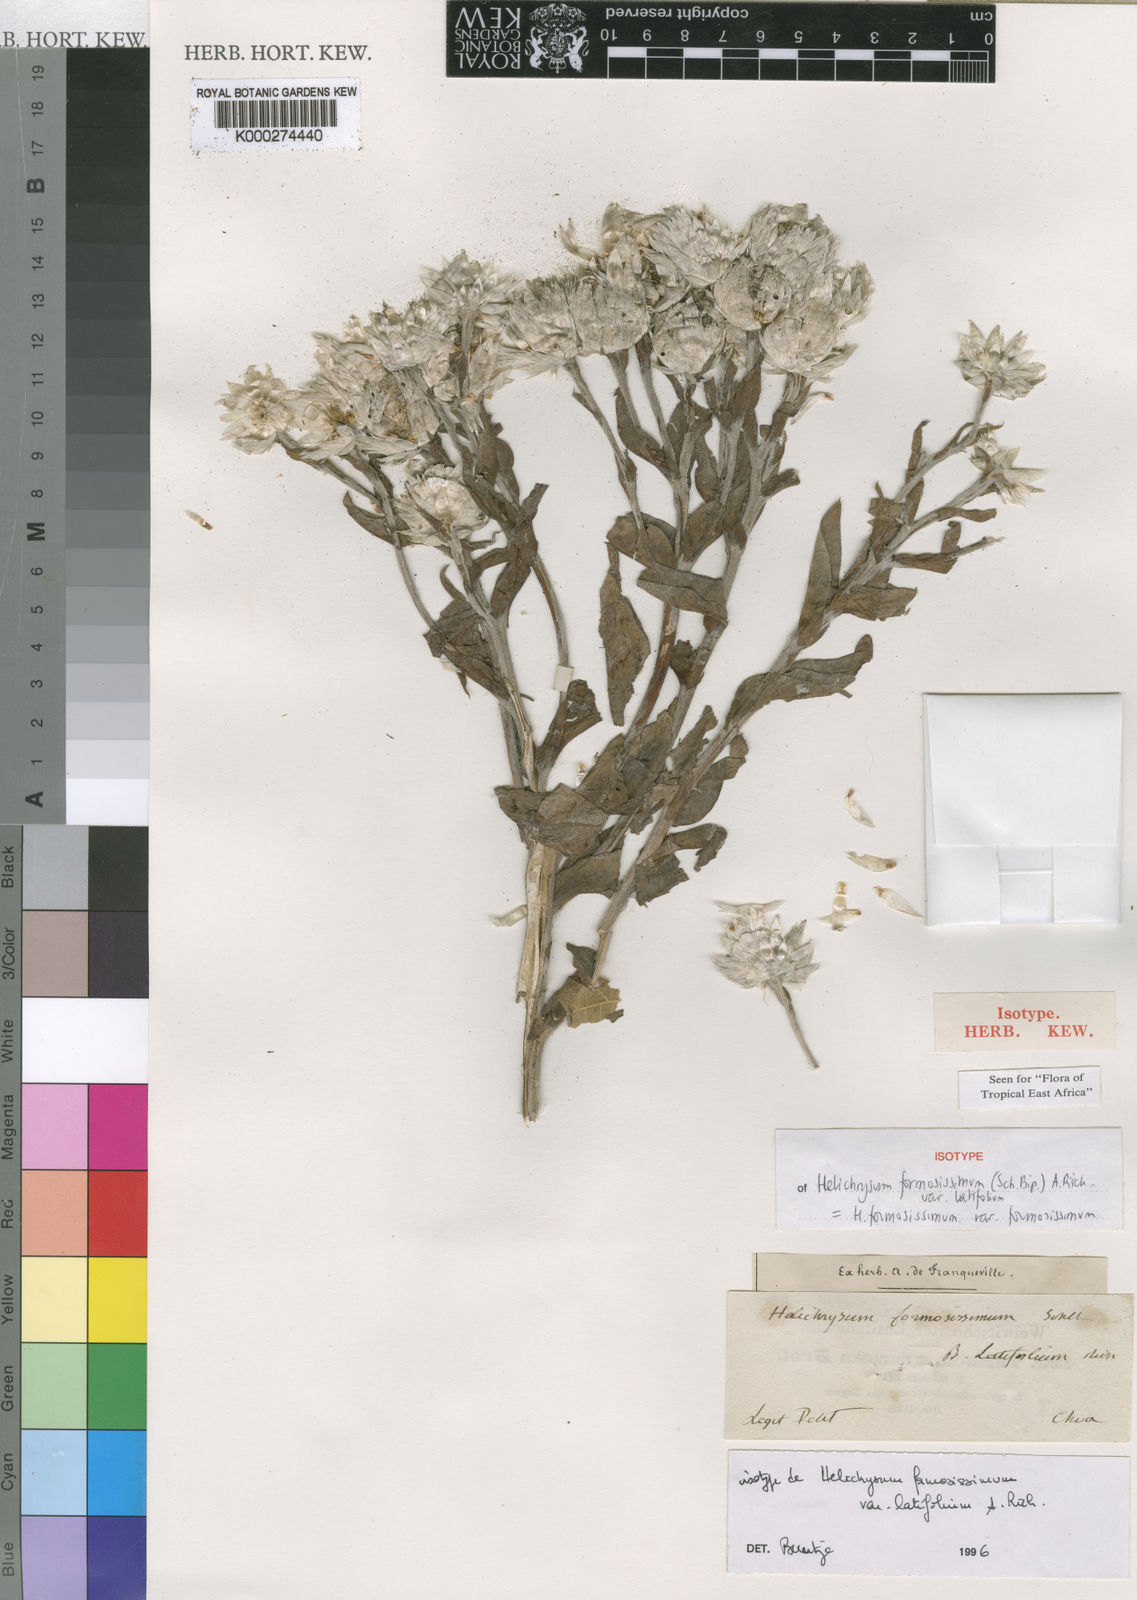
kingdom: Plantae
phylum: Tracheophyta
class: Magnoliopsida
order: Asterales
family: Asteraceae
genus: Helichrysum
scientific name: Helichrysum
